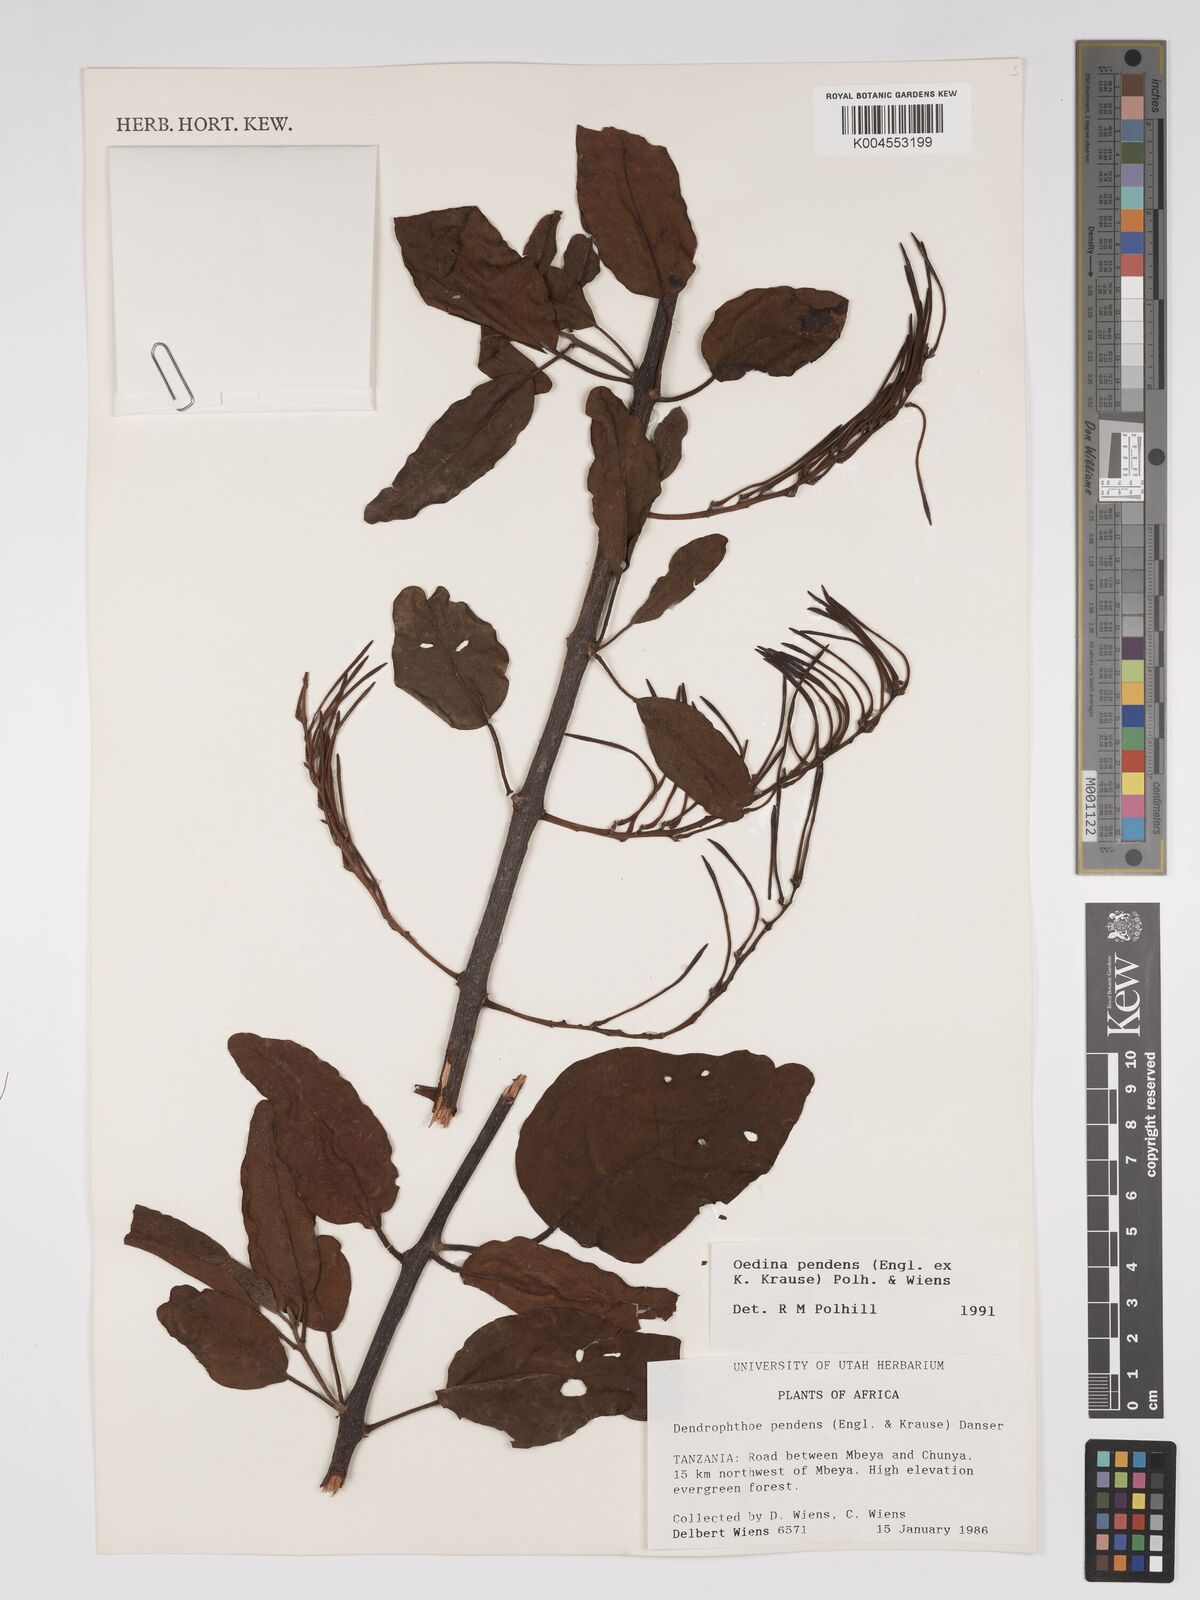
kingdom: Plantae
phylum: Tracheophyta
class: Magnoliopsida
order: Santalales
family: Loranthaceae
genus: Oedina
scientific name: Oedina pendens
